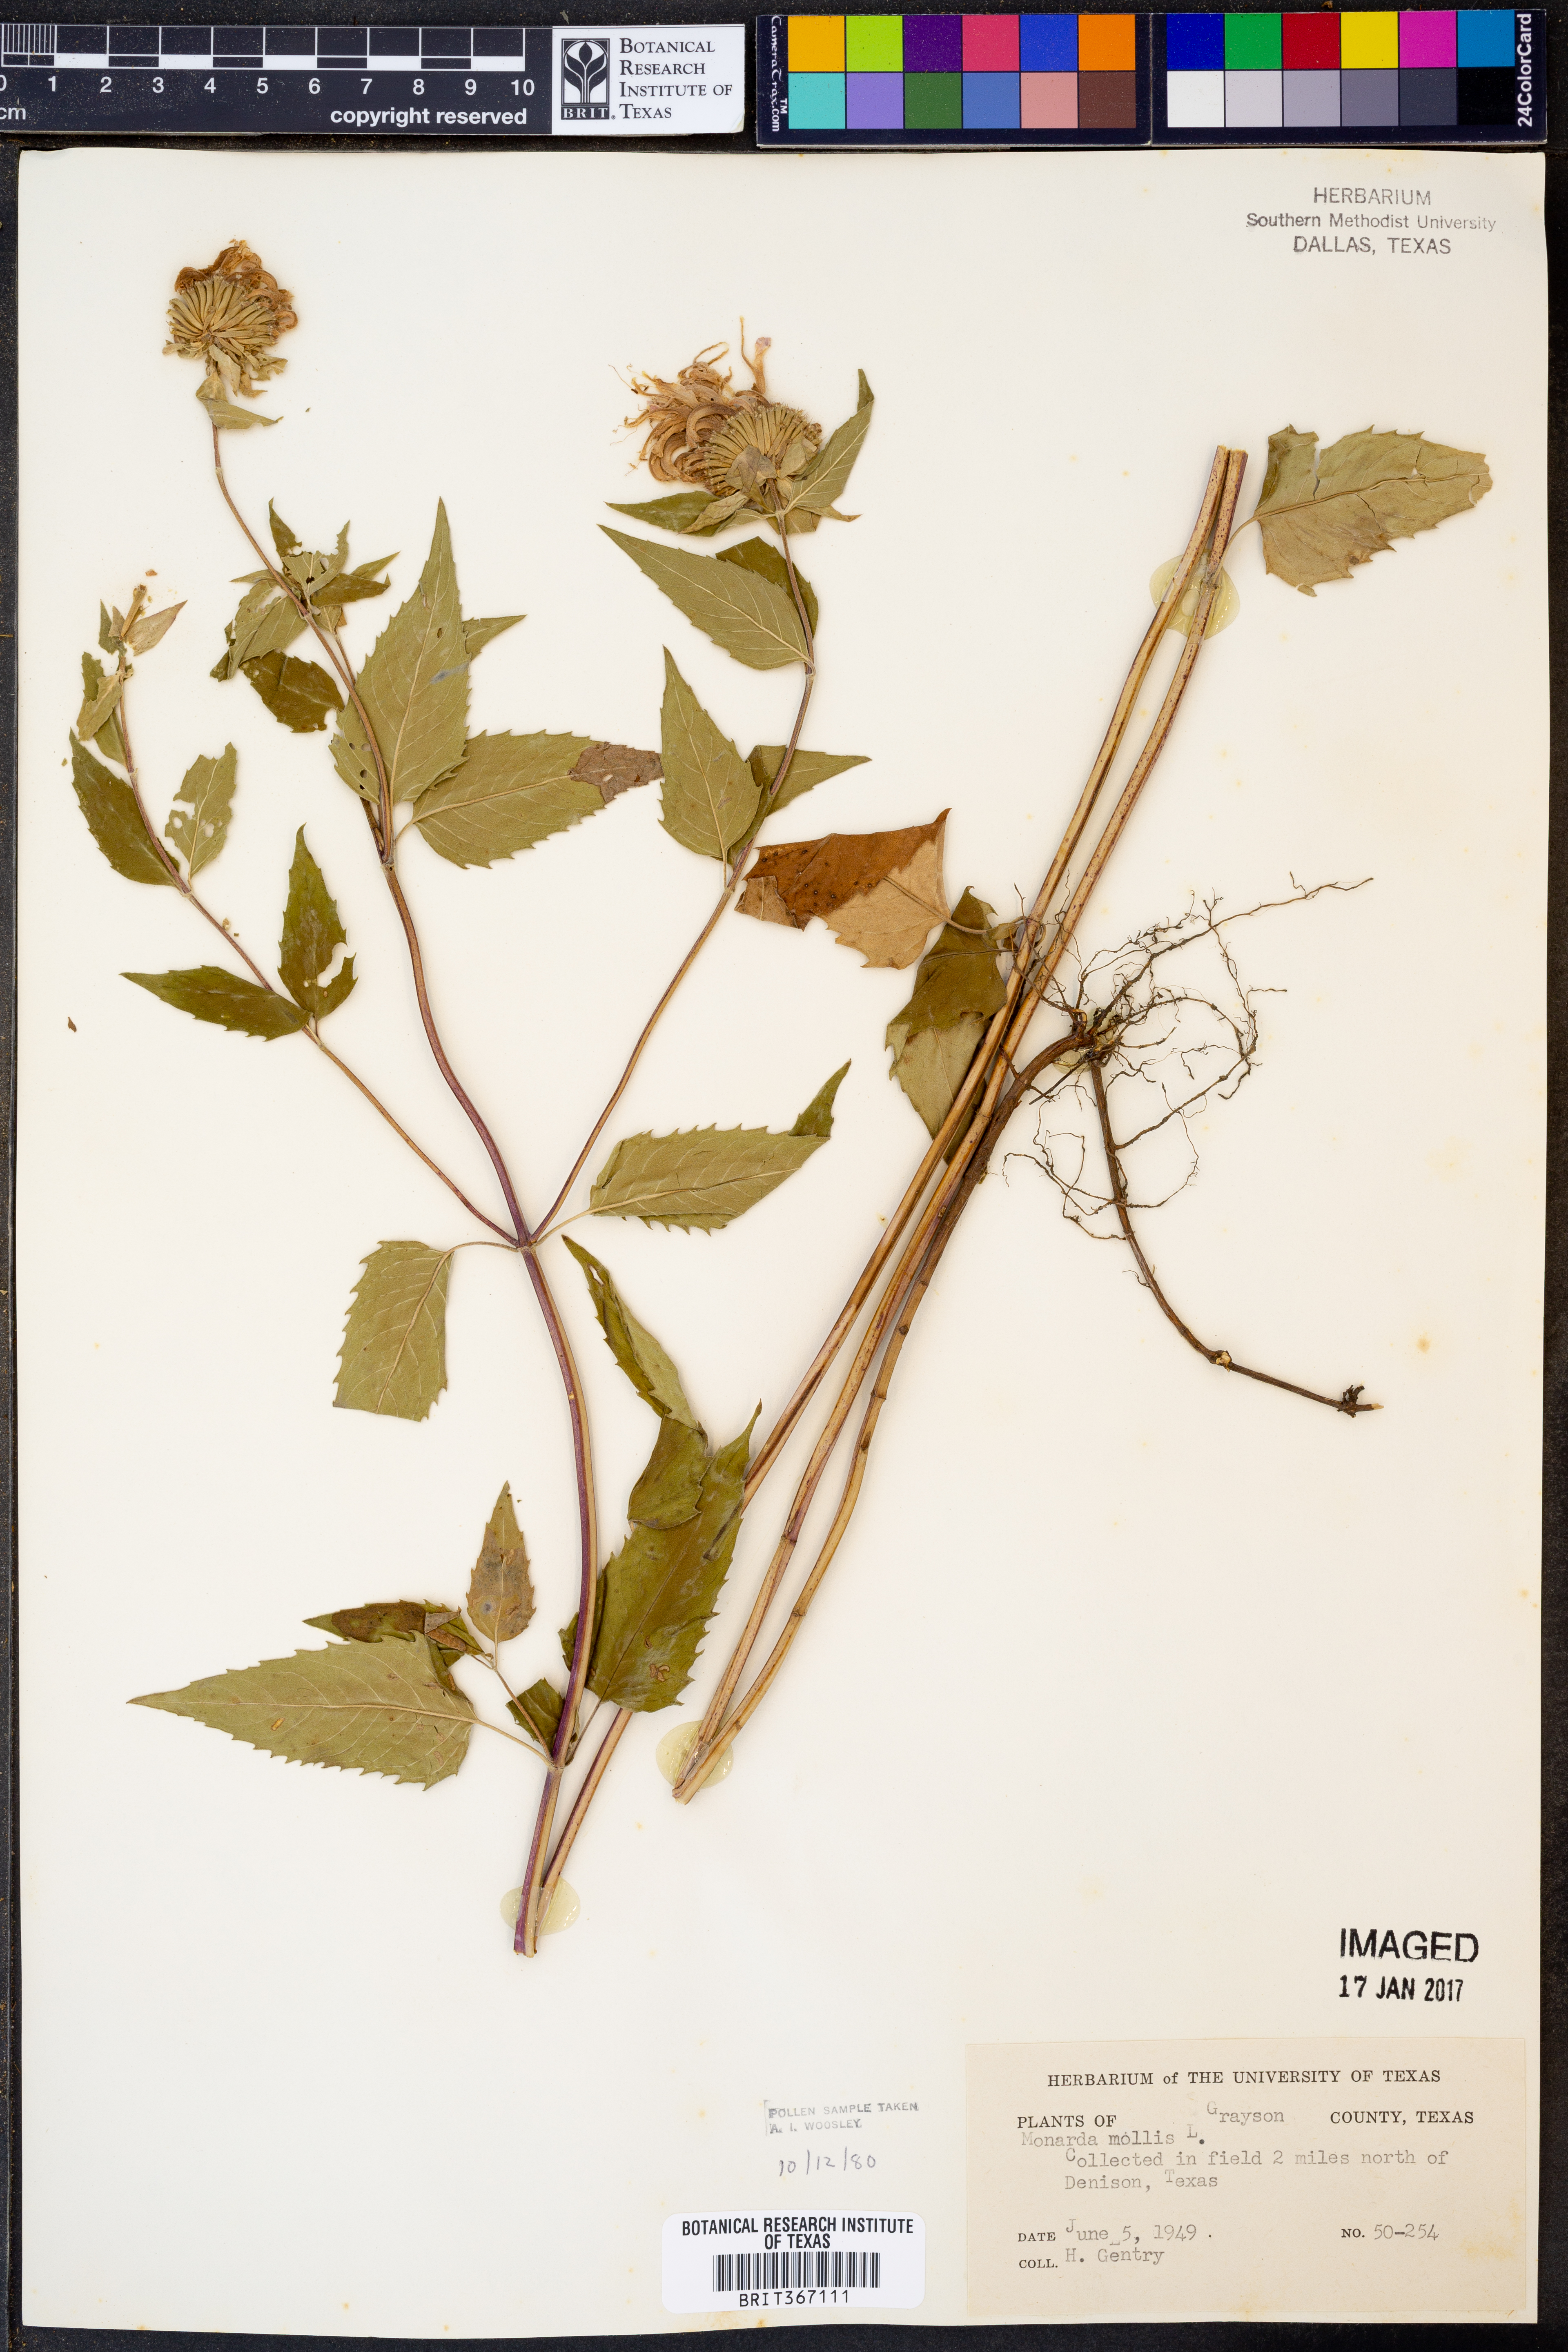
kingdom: Plantae
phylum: Tracheophyta
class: Magnoliopsida
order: Lamiales
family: Lamiaceae
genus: Monarda
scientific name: Monarda fistulosa
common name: Purple beebalm
